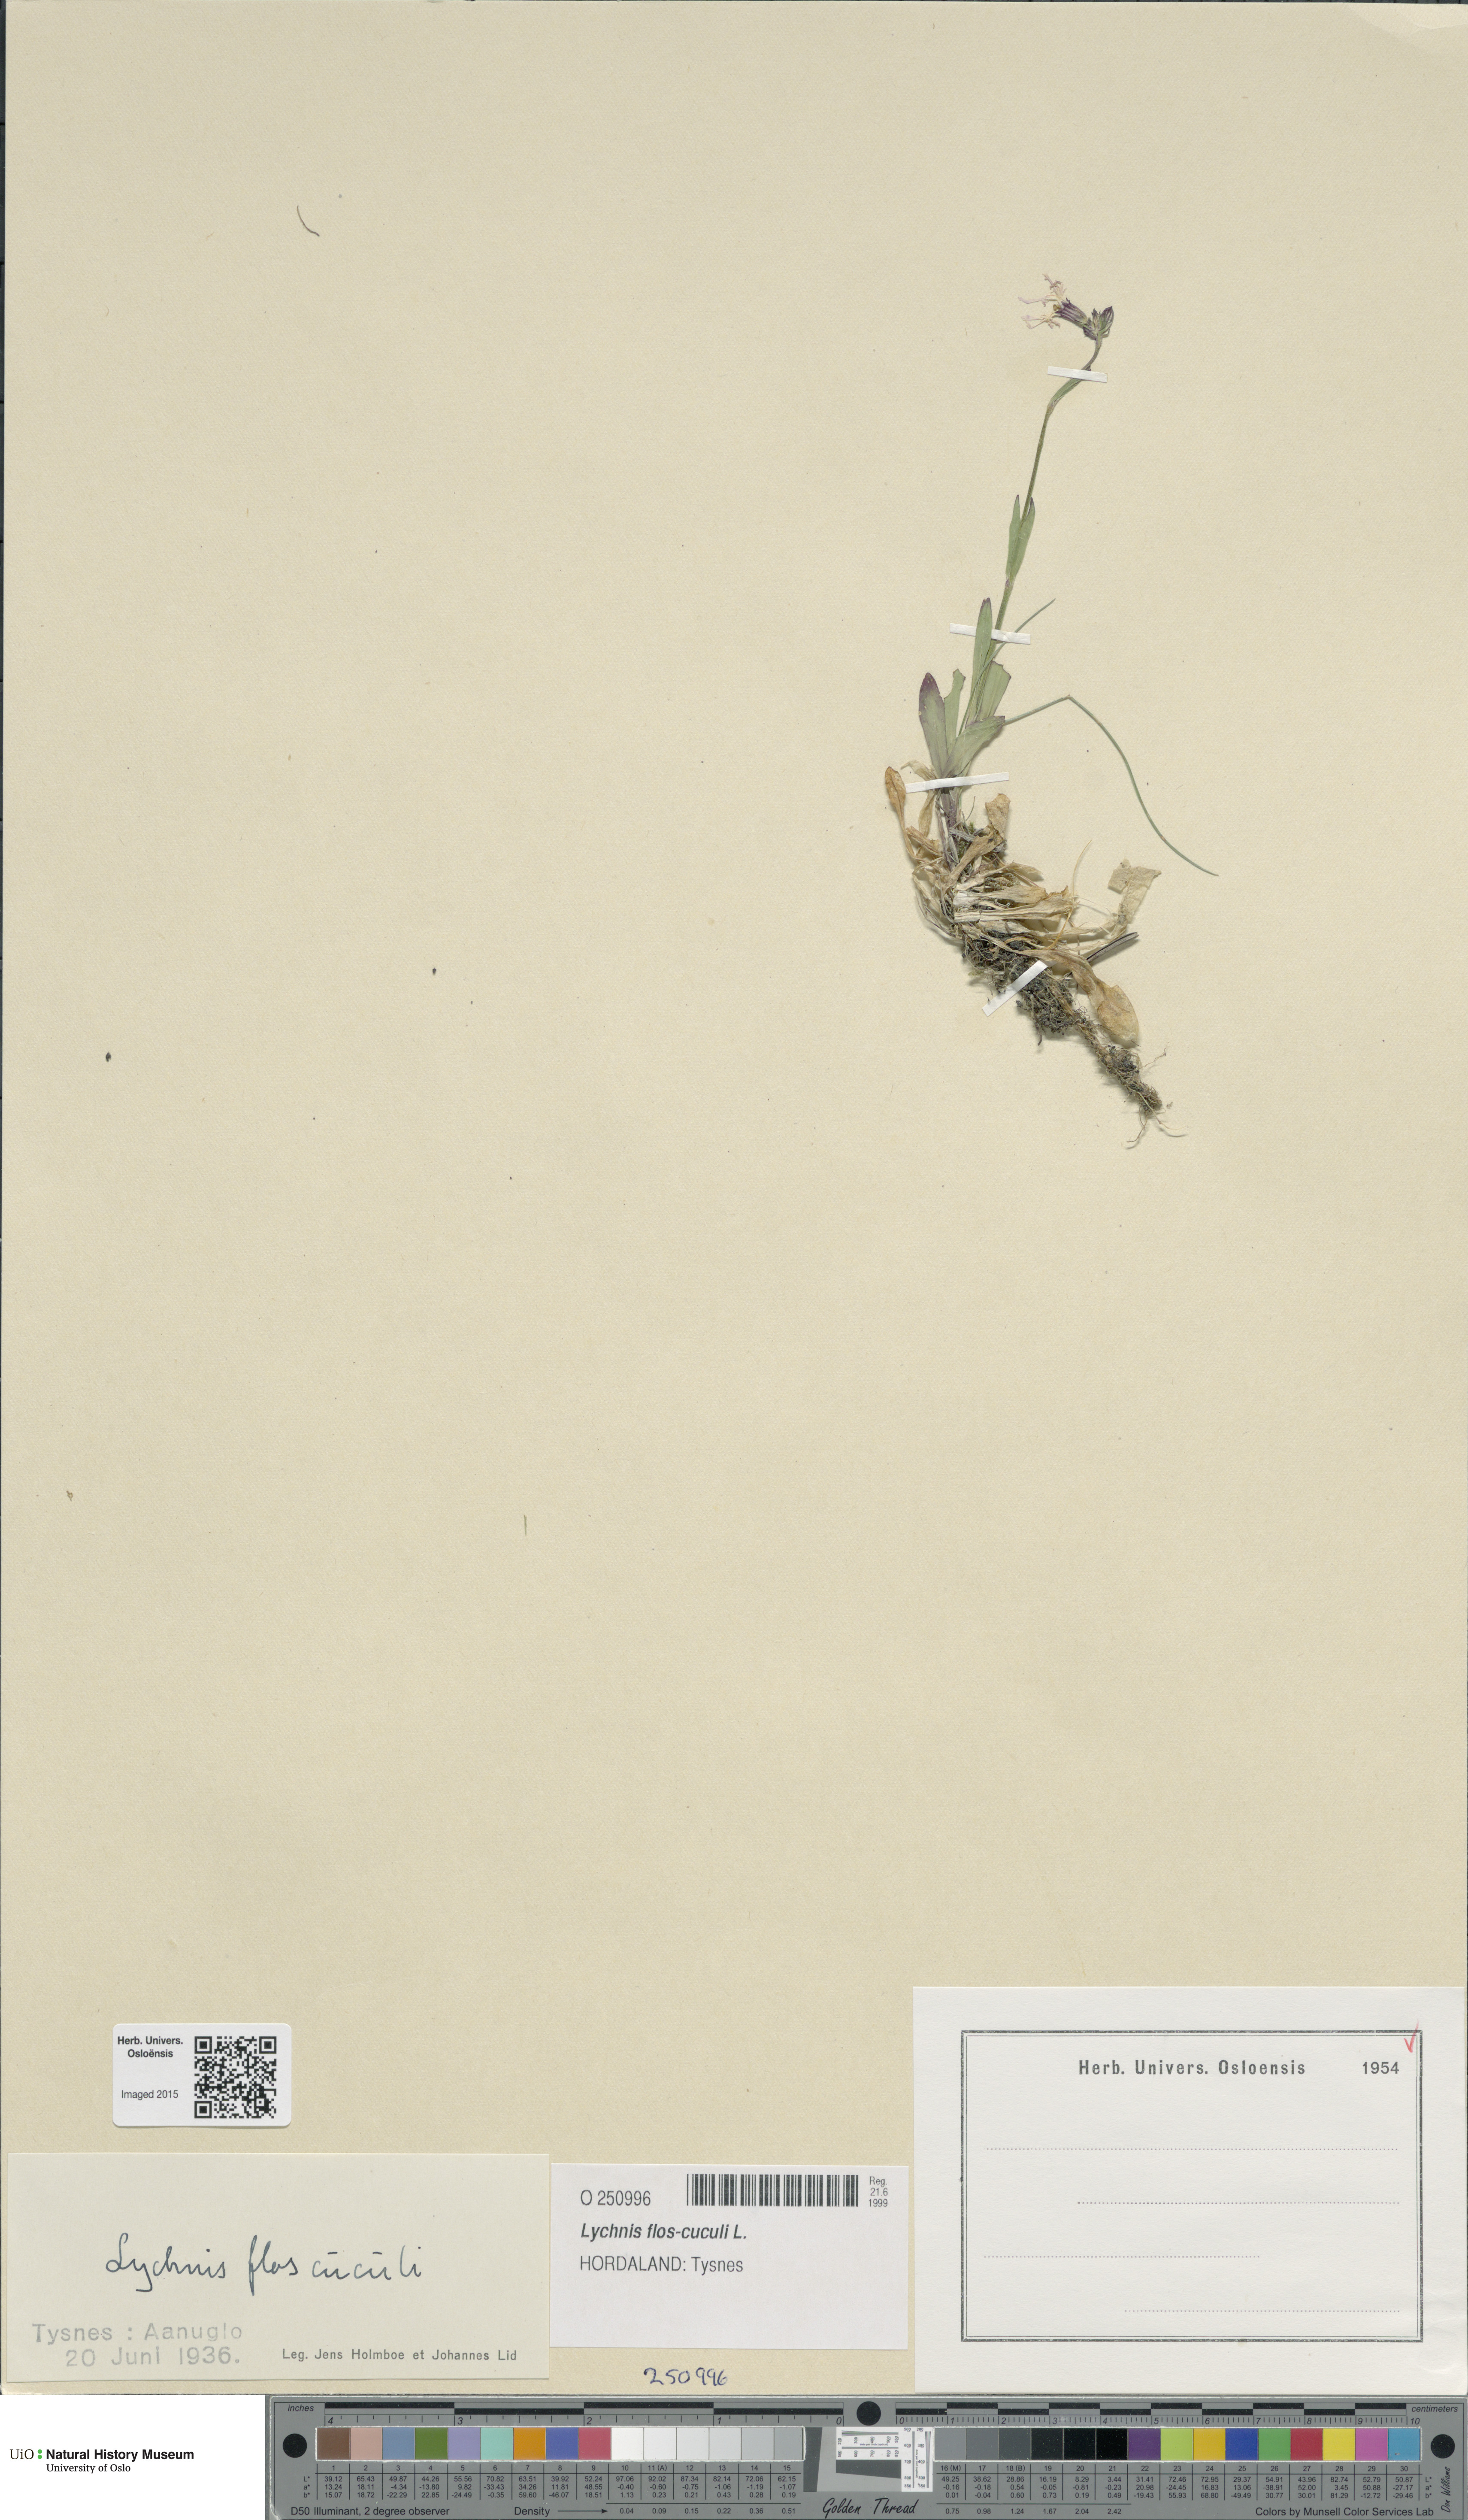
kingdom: Plantae
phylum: Tracheophyta
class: Magnoliopsida
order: Caryophyllales
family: Caryophyllaceae
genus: Silene
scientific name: Silene flos-cuculi
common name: Ragged-robin
